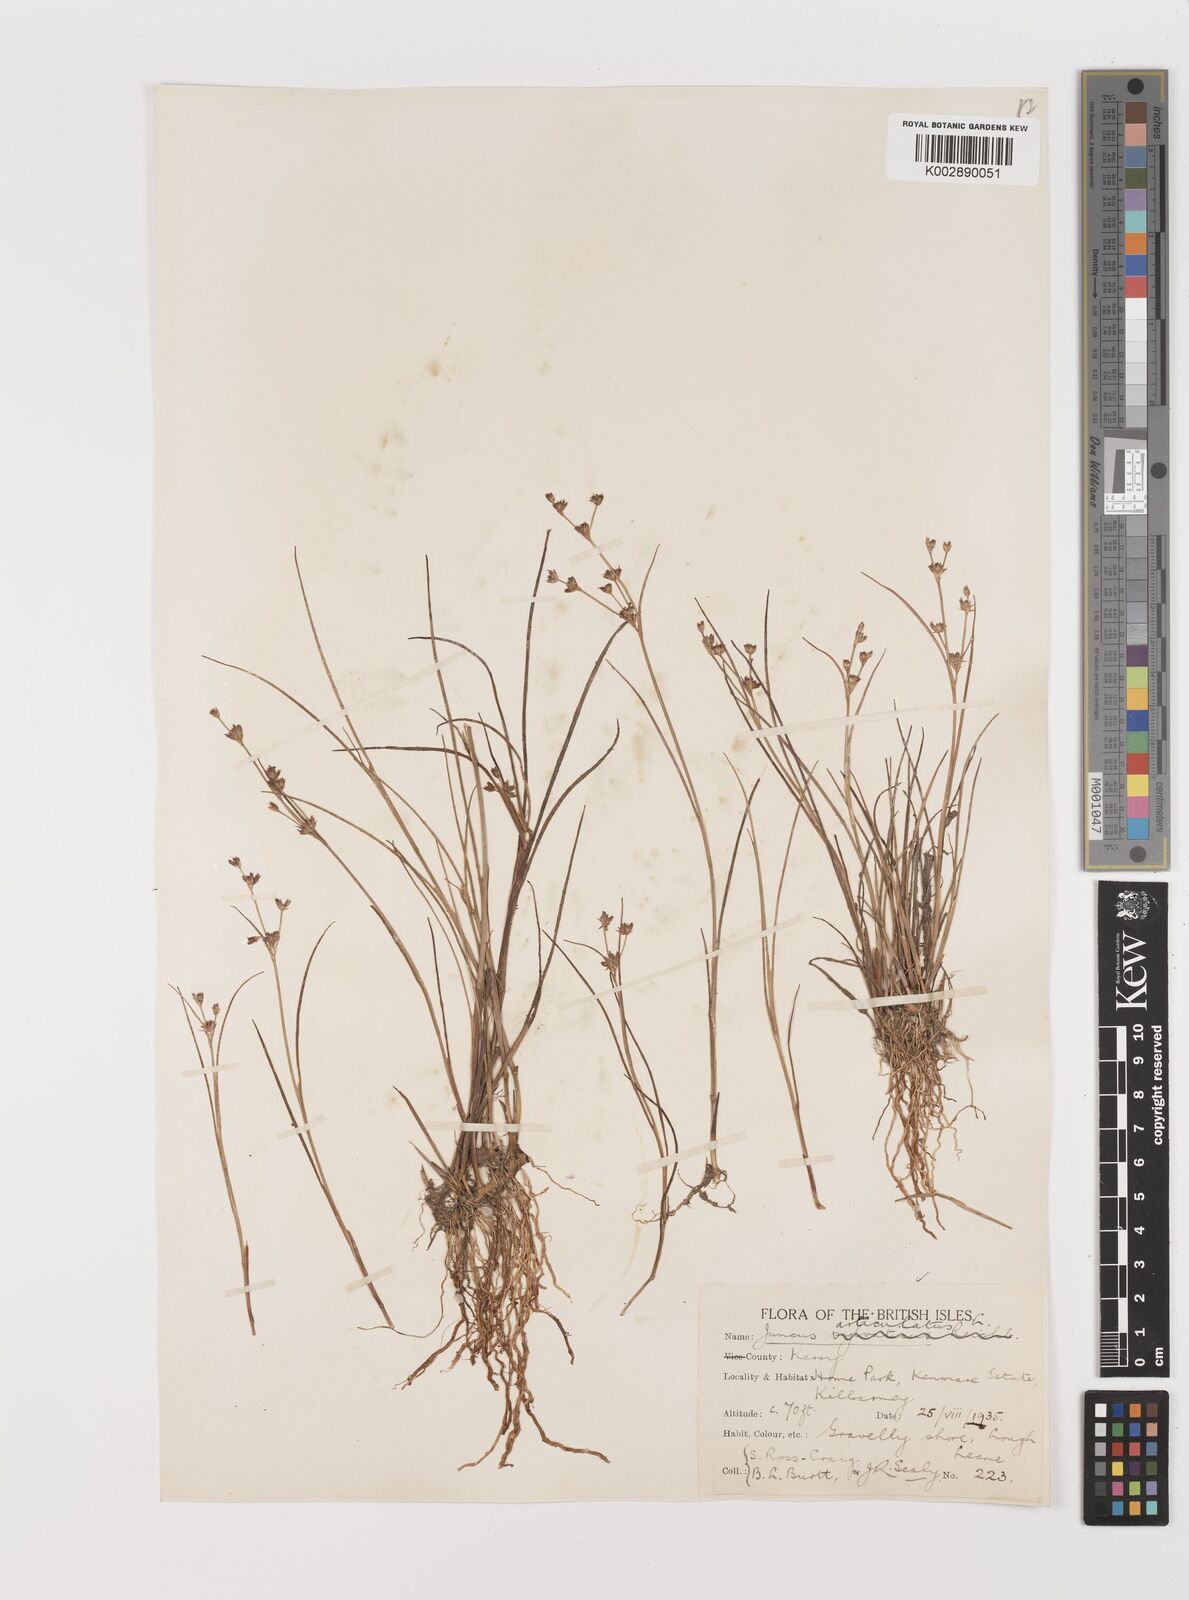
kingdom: Plantae
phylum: Tracheophyta
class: Liliopsida
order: Poales
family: Juncaceae
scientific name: Juncaceae
